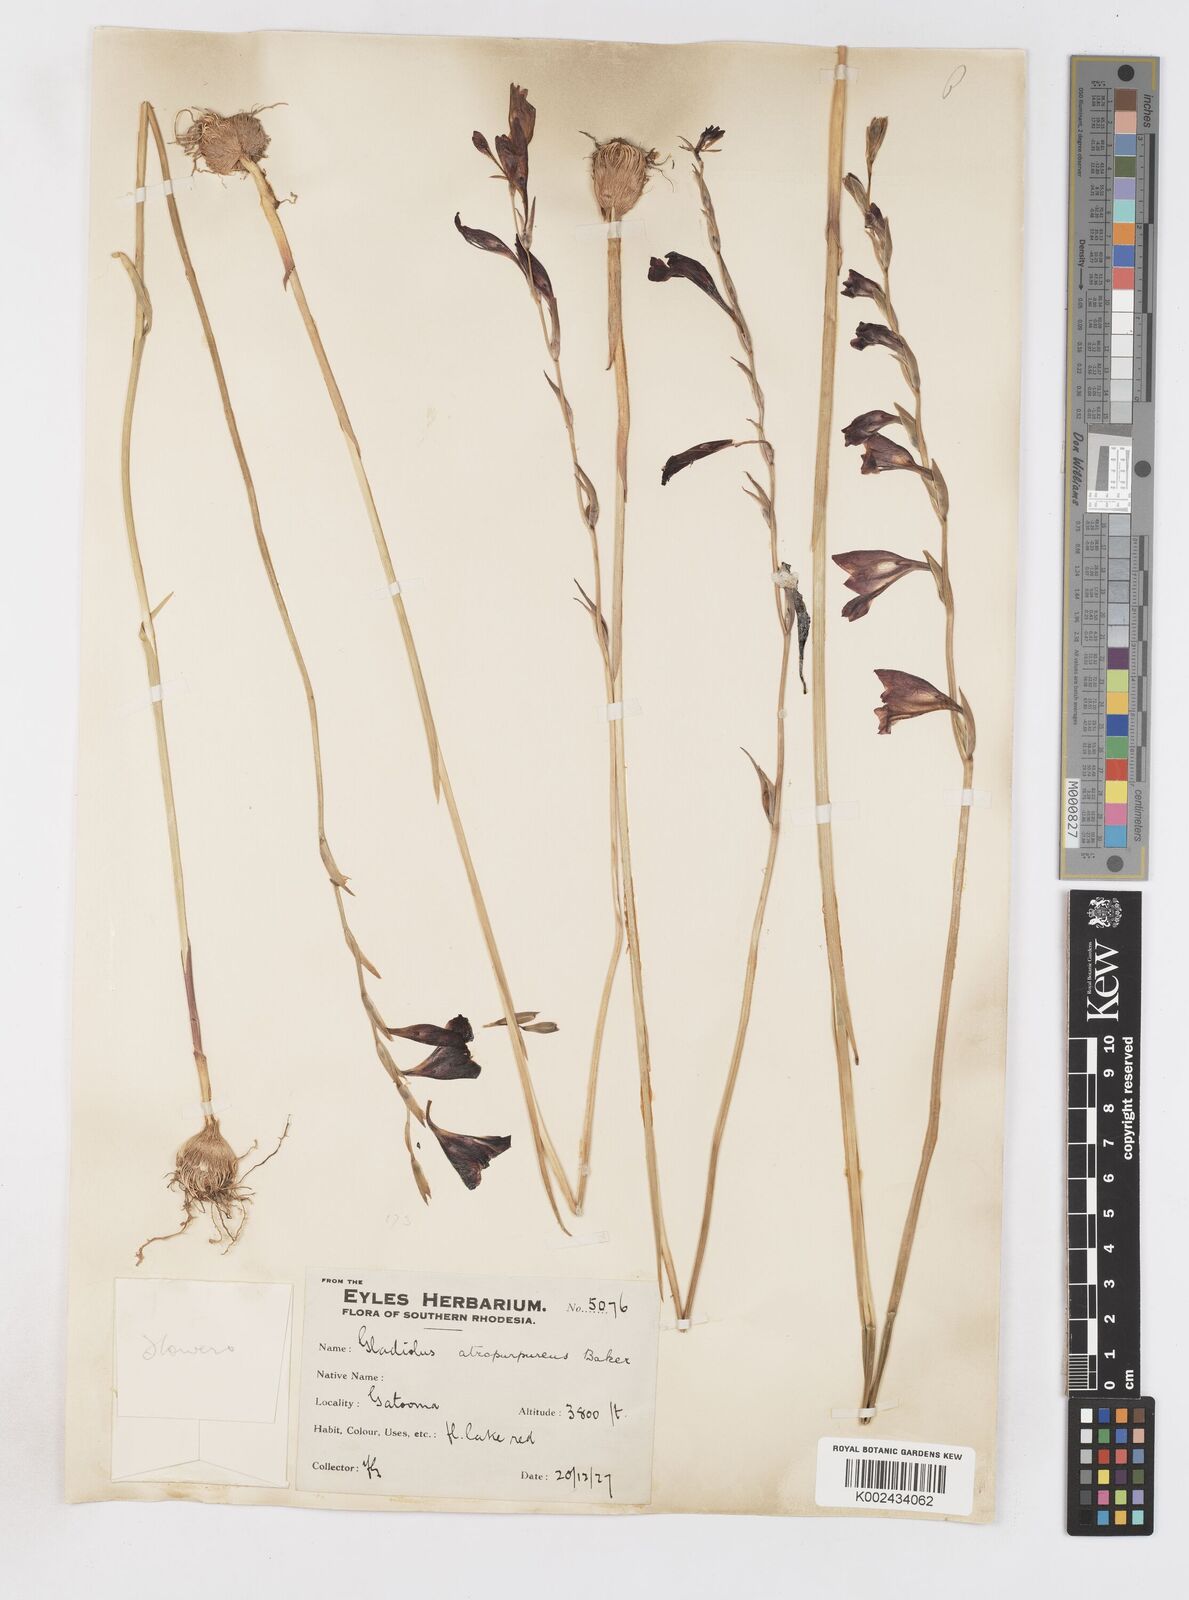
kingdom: Plantae
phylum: Tracheophyta
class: Liliopsida
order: Asparagales
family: Iridaceae
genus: Gladiolus
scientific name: Gladiolus atropurpureus
